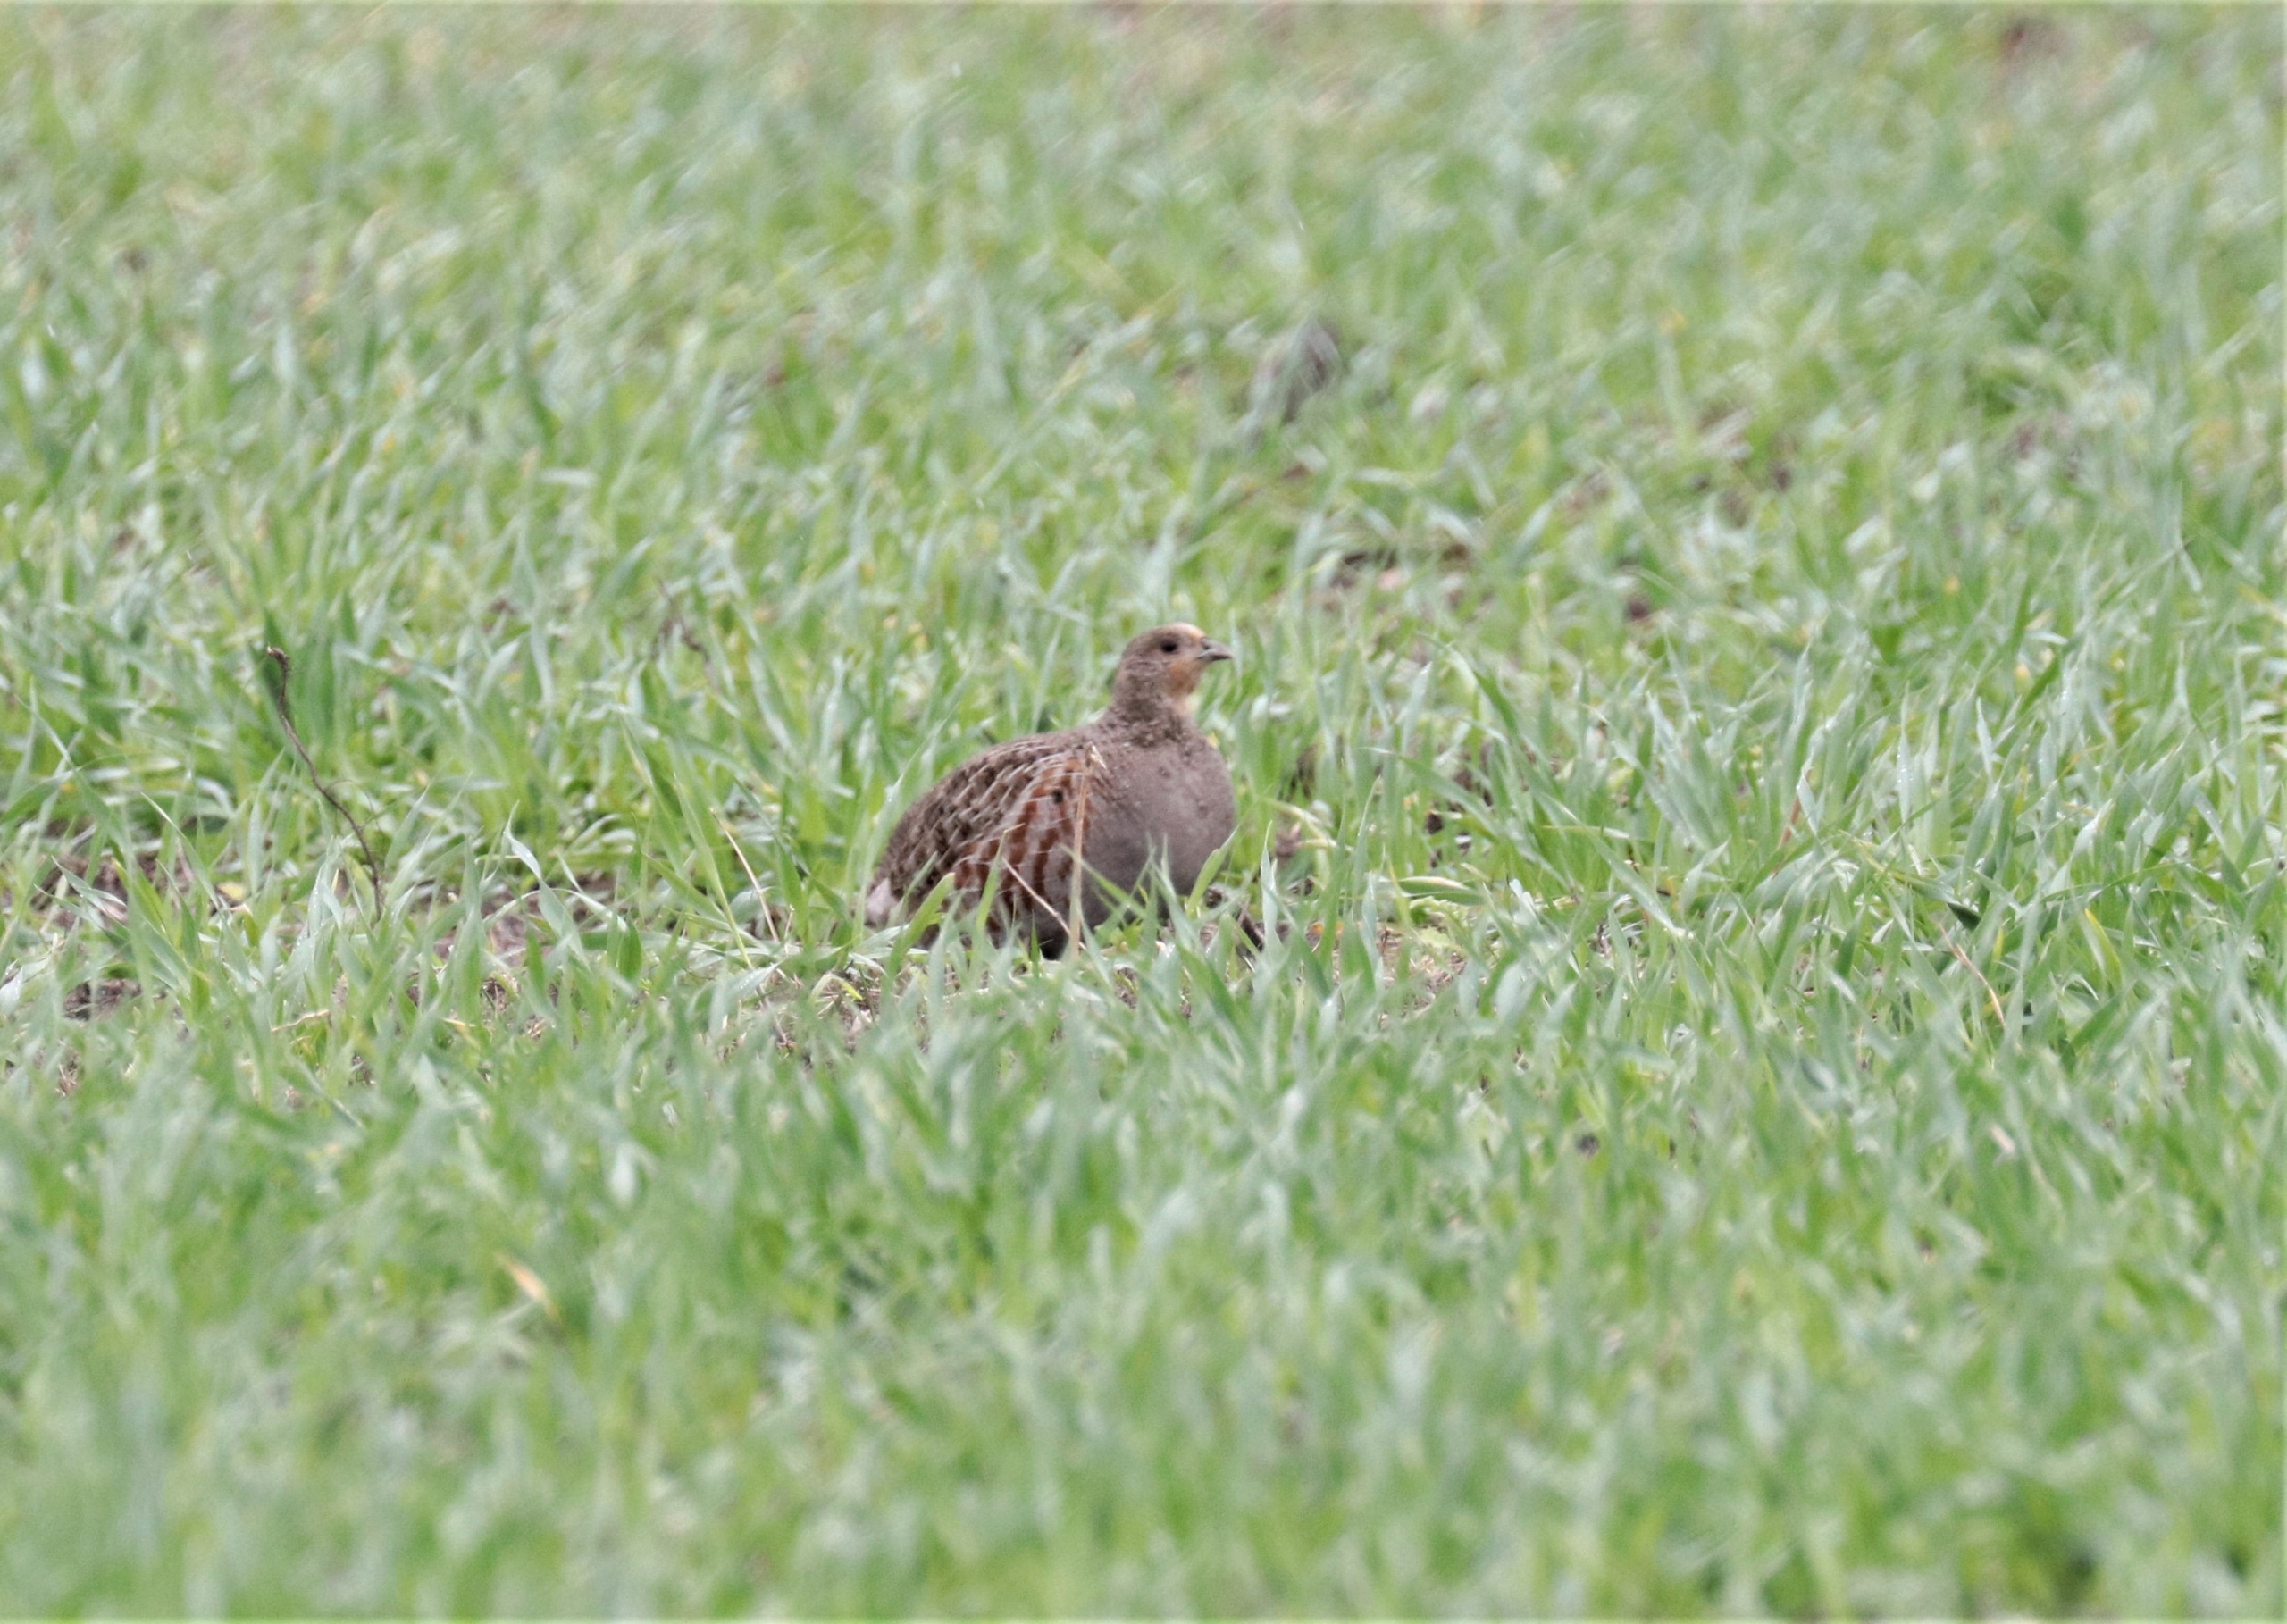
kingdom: Animalia
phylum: Chordata
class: Aves
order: Galliformes
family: Phasianidae
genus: Perdix
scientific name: Perdix perdix
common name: Agerhøne
